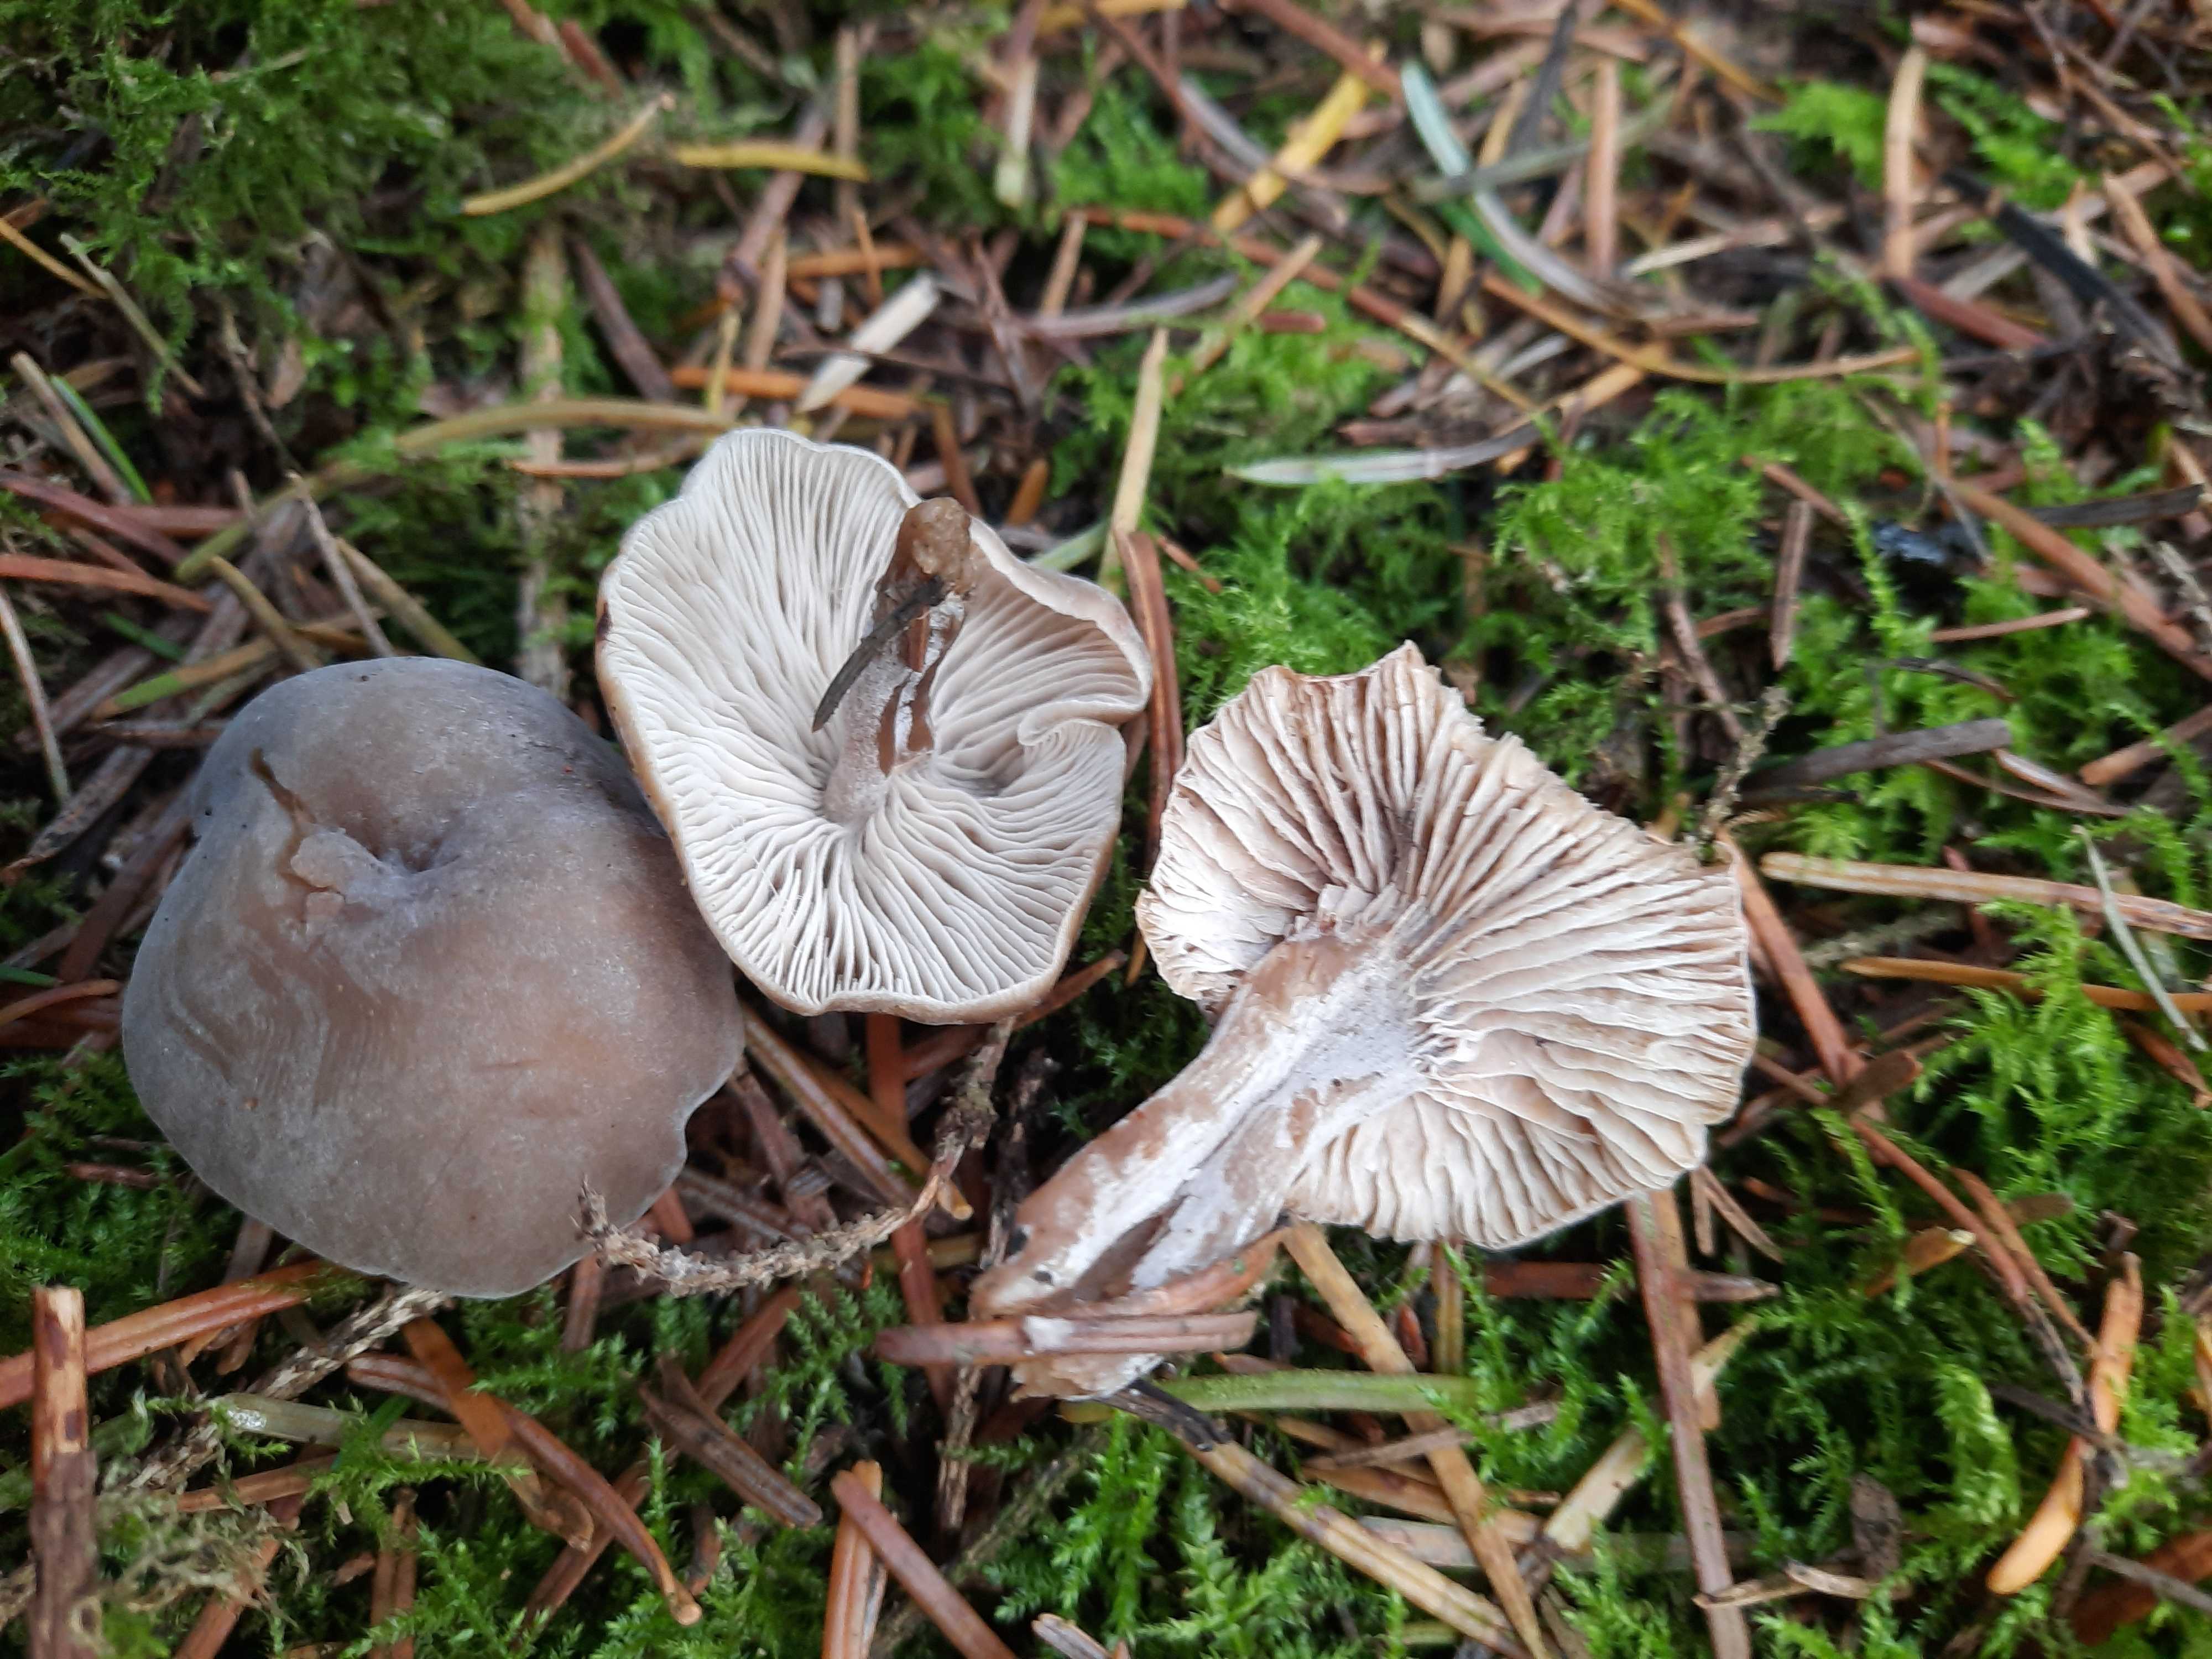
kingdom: Fungi
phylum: Basidiomycota
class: Agaricomycetes
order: Agaricales
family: Callistosporiaceae
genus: Pseudolaccaria
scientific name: Pseudolaccaria pachyphylla
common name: hvælvet tykblad
